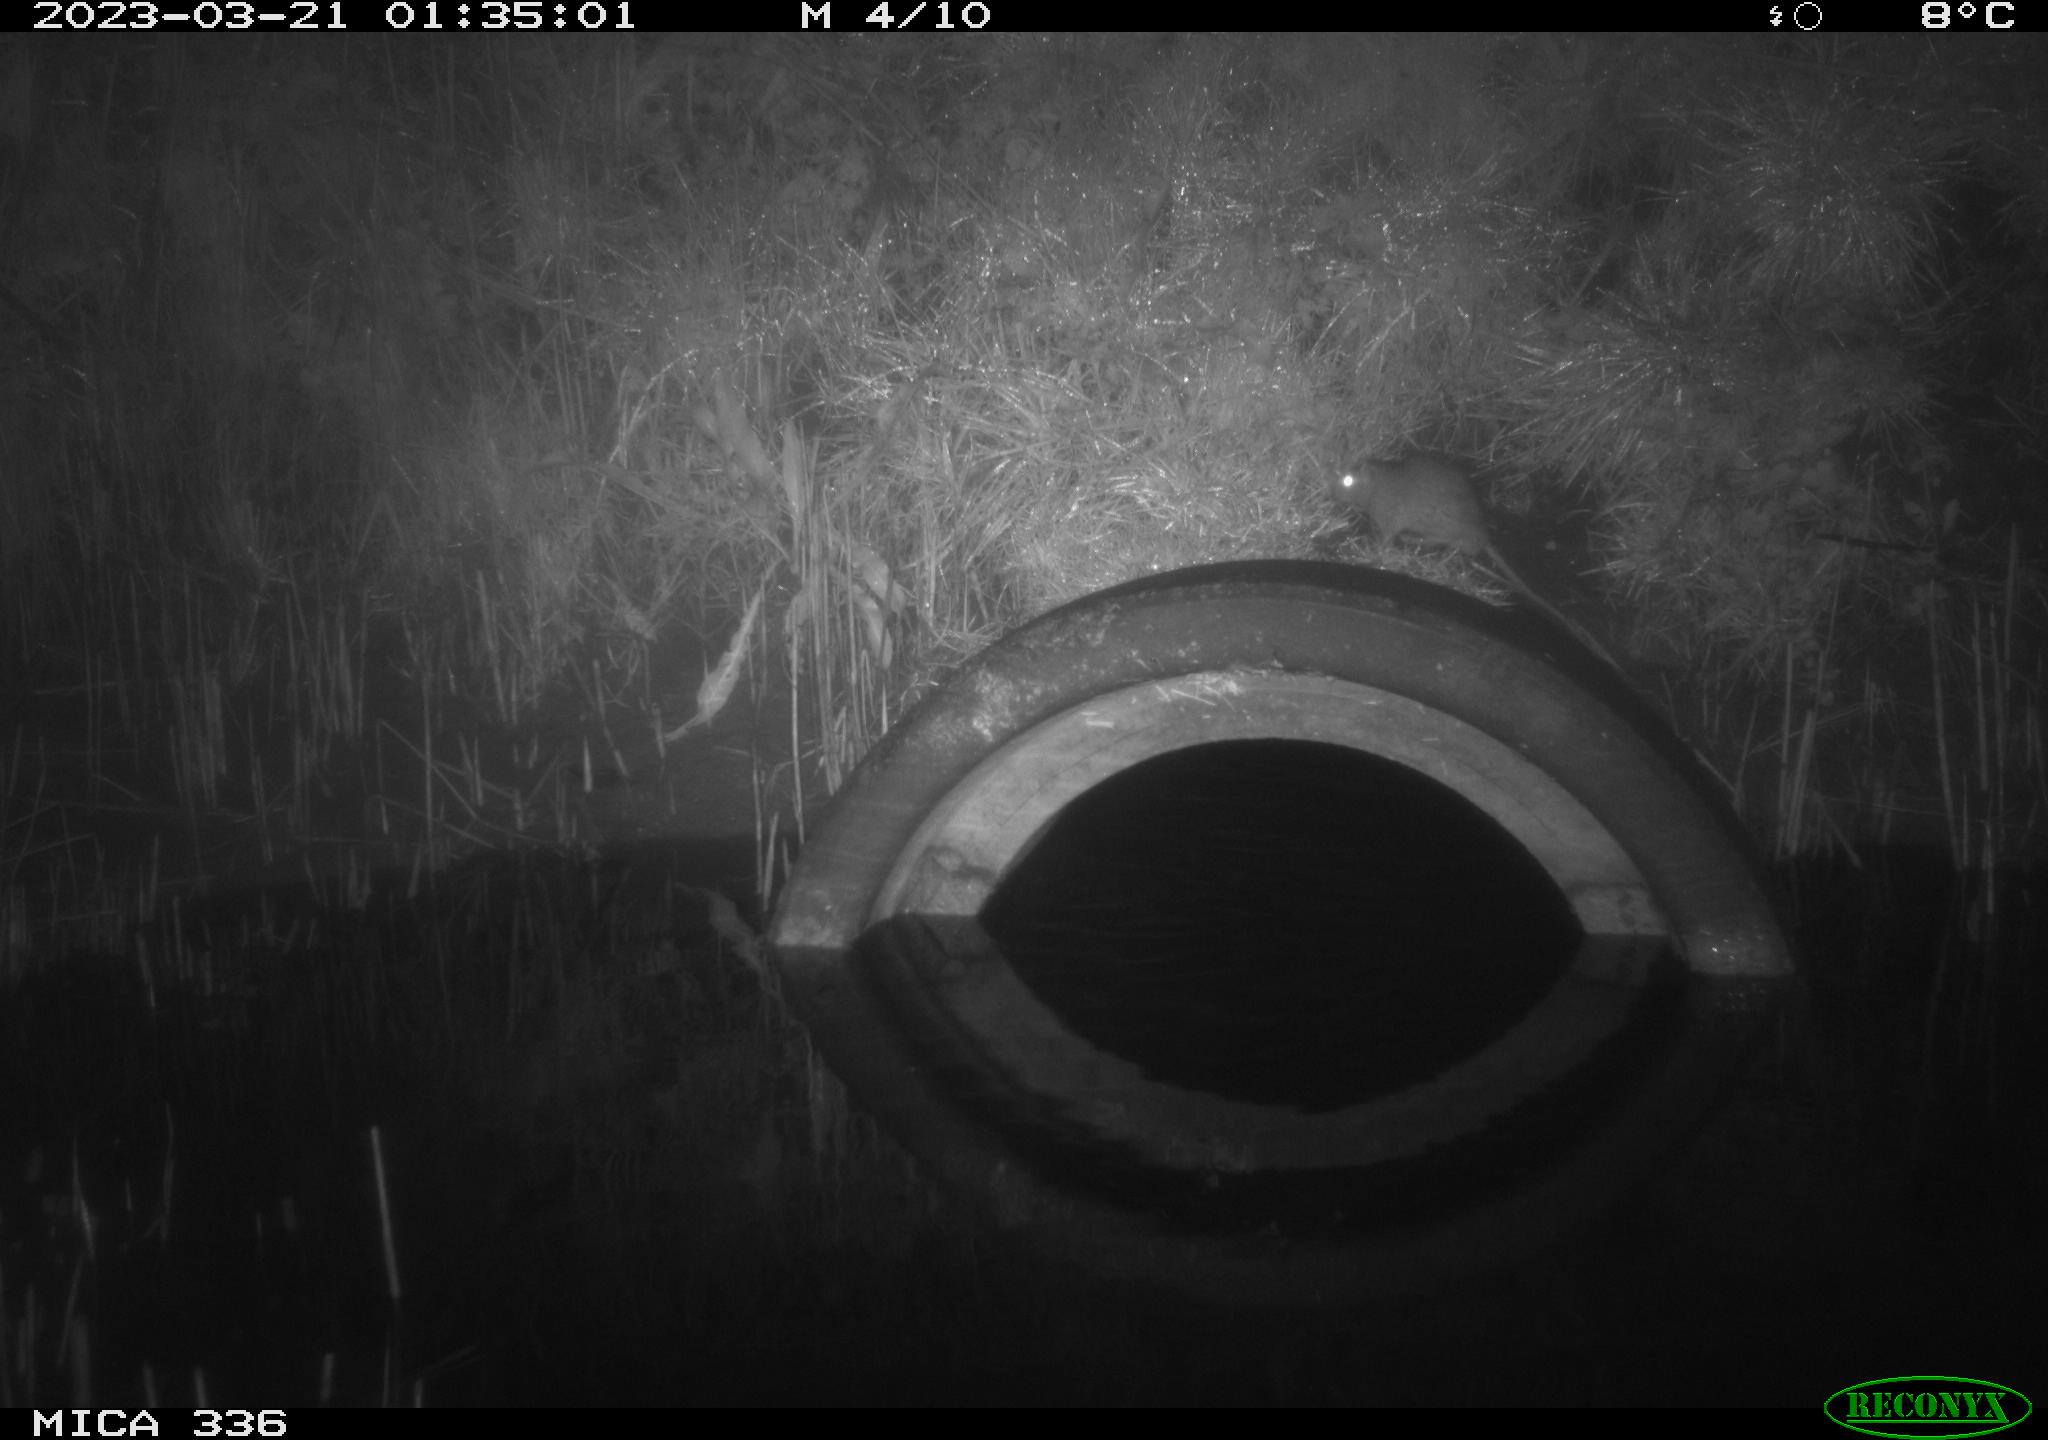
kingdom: Animalia
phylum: Chordata
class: Mammalia
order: Rodentia
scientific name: Rodentia
